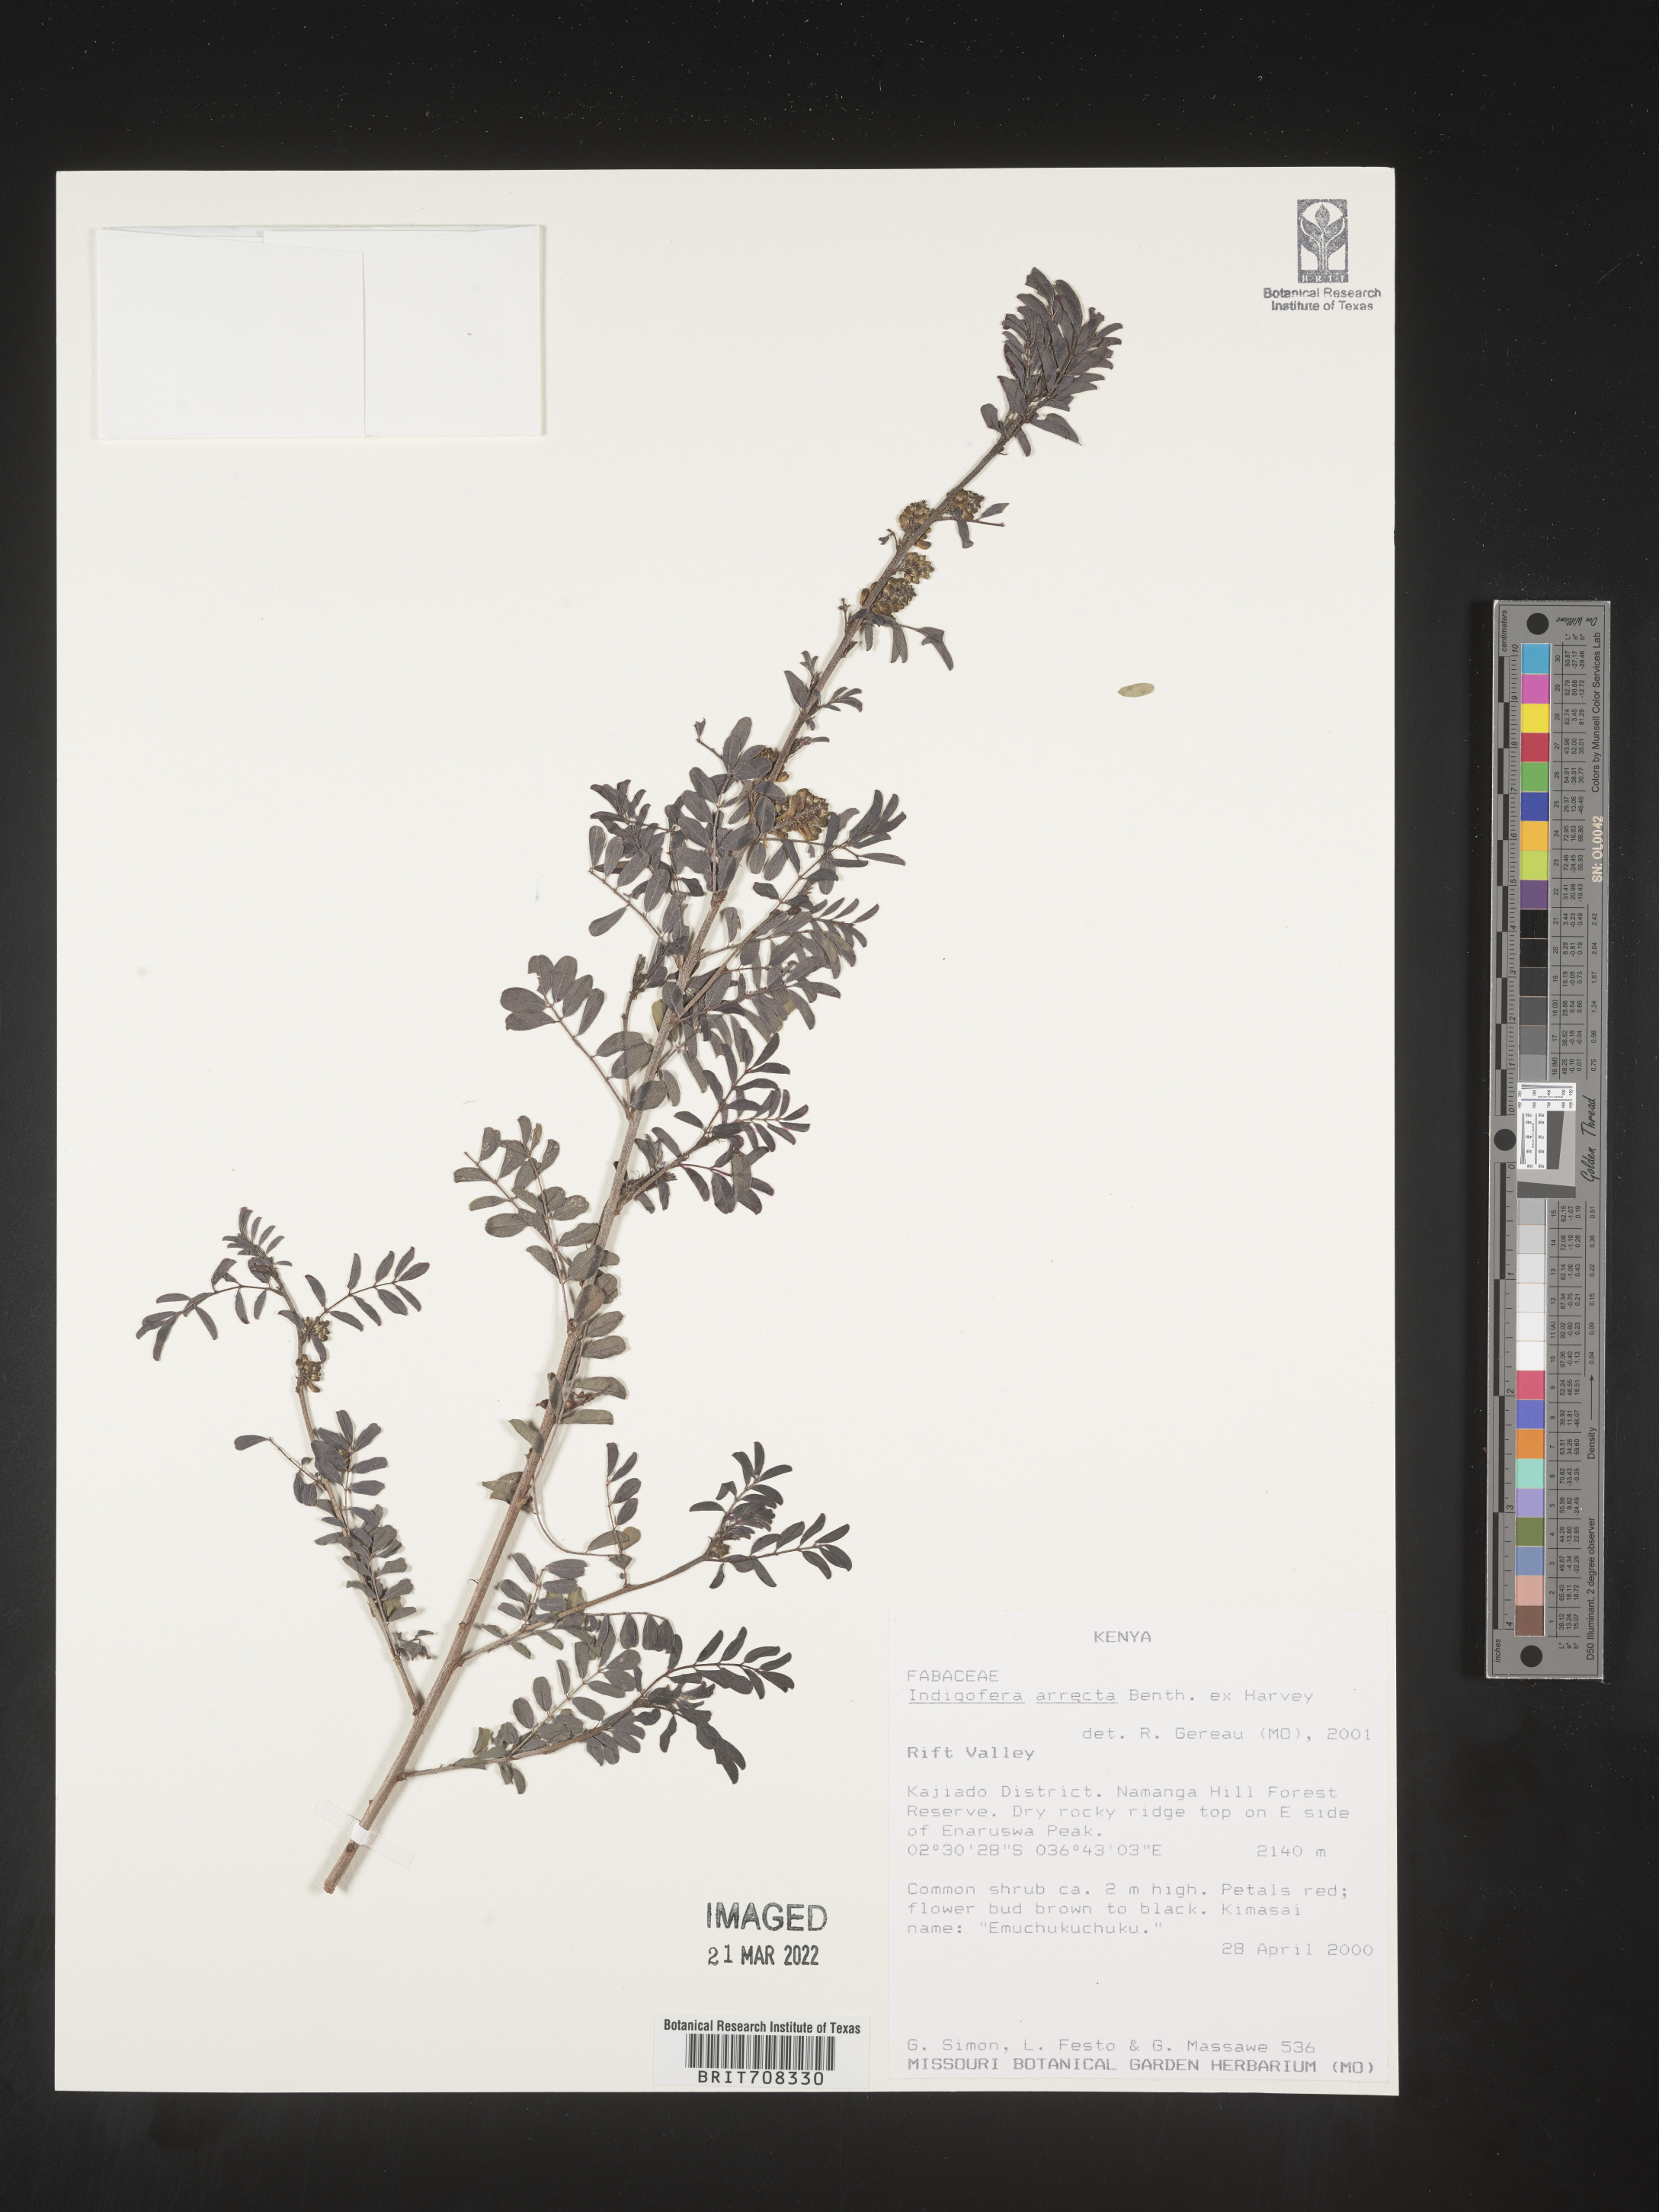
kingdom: Plantae
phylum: Tracheophyta
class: Magnoliopsida
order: Fabales
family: Fabaceae
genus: Indigofera
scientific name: Indigofera
